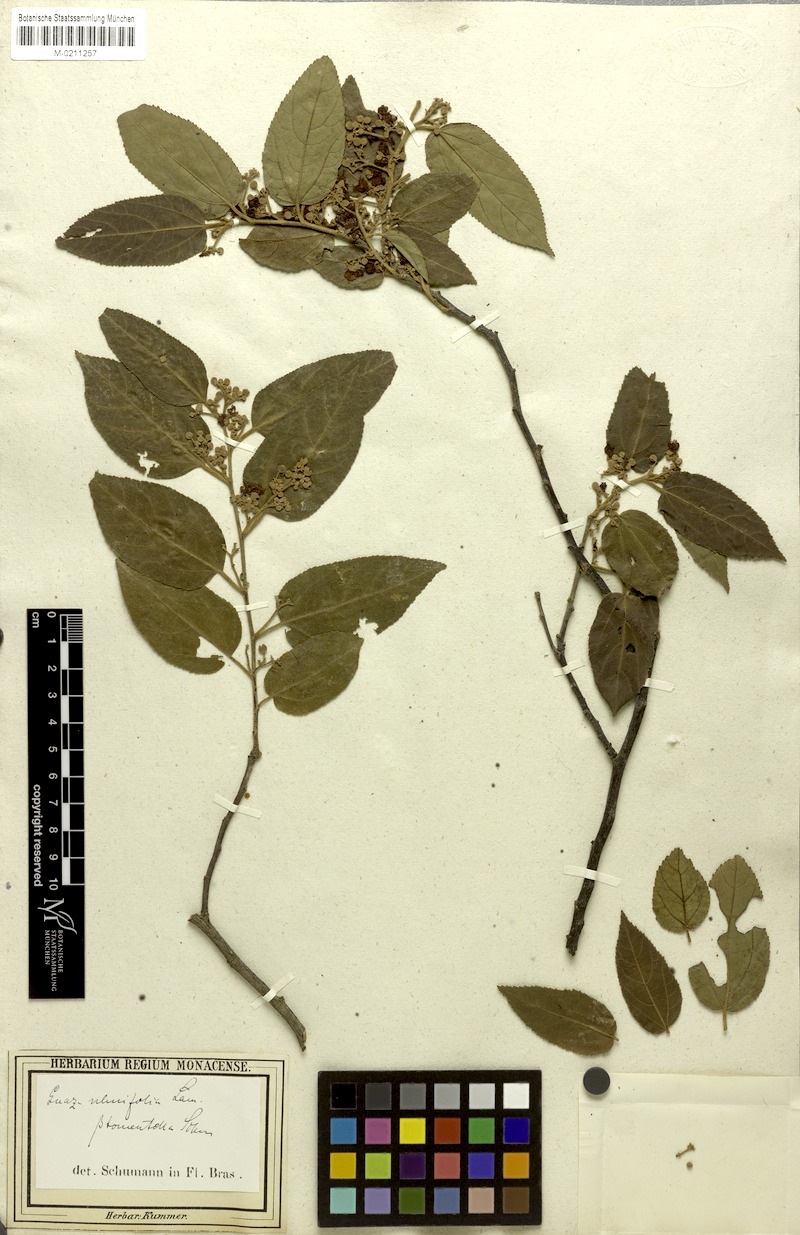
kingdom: Plantae
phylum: Tracheophyta
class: Magnoliopsida
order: Malvales
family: Malvaceae
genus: Guazuma
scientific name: Guazuma ulmifolia
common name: Bastard-cedar
